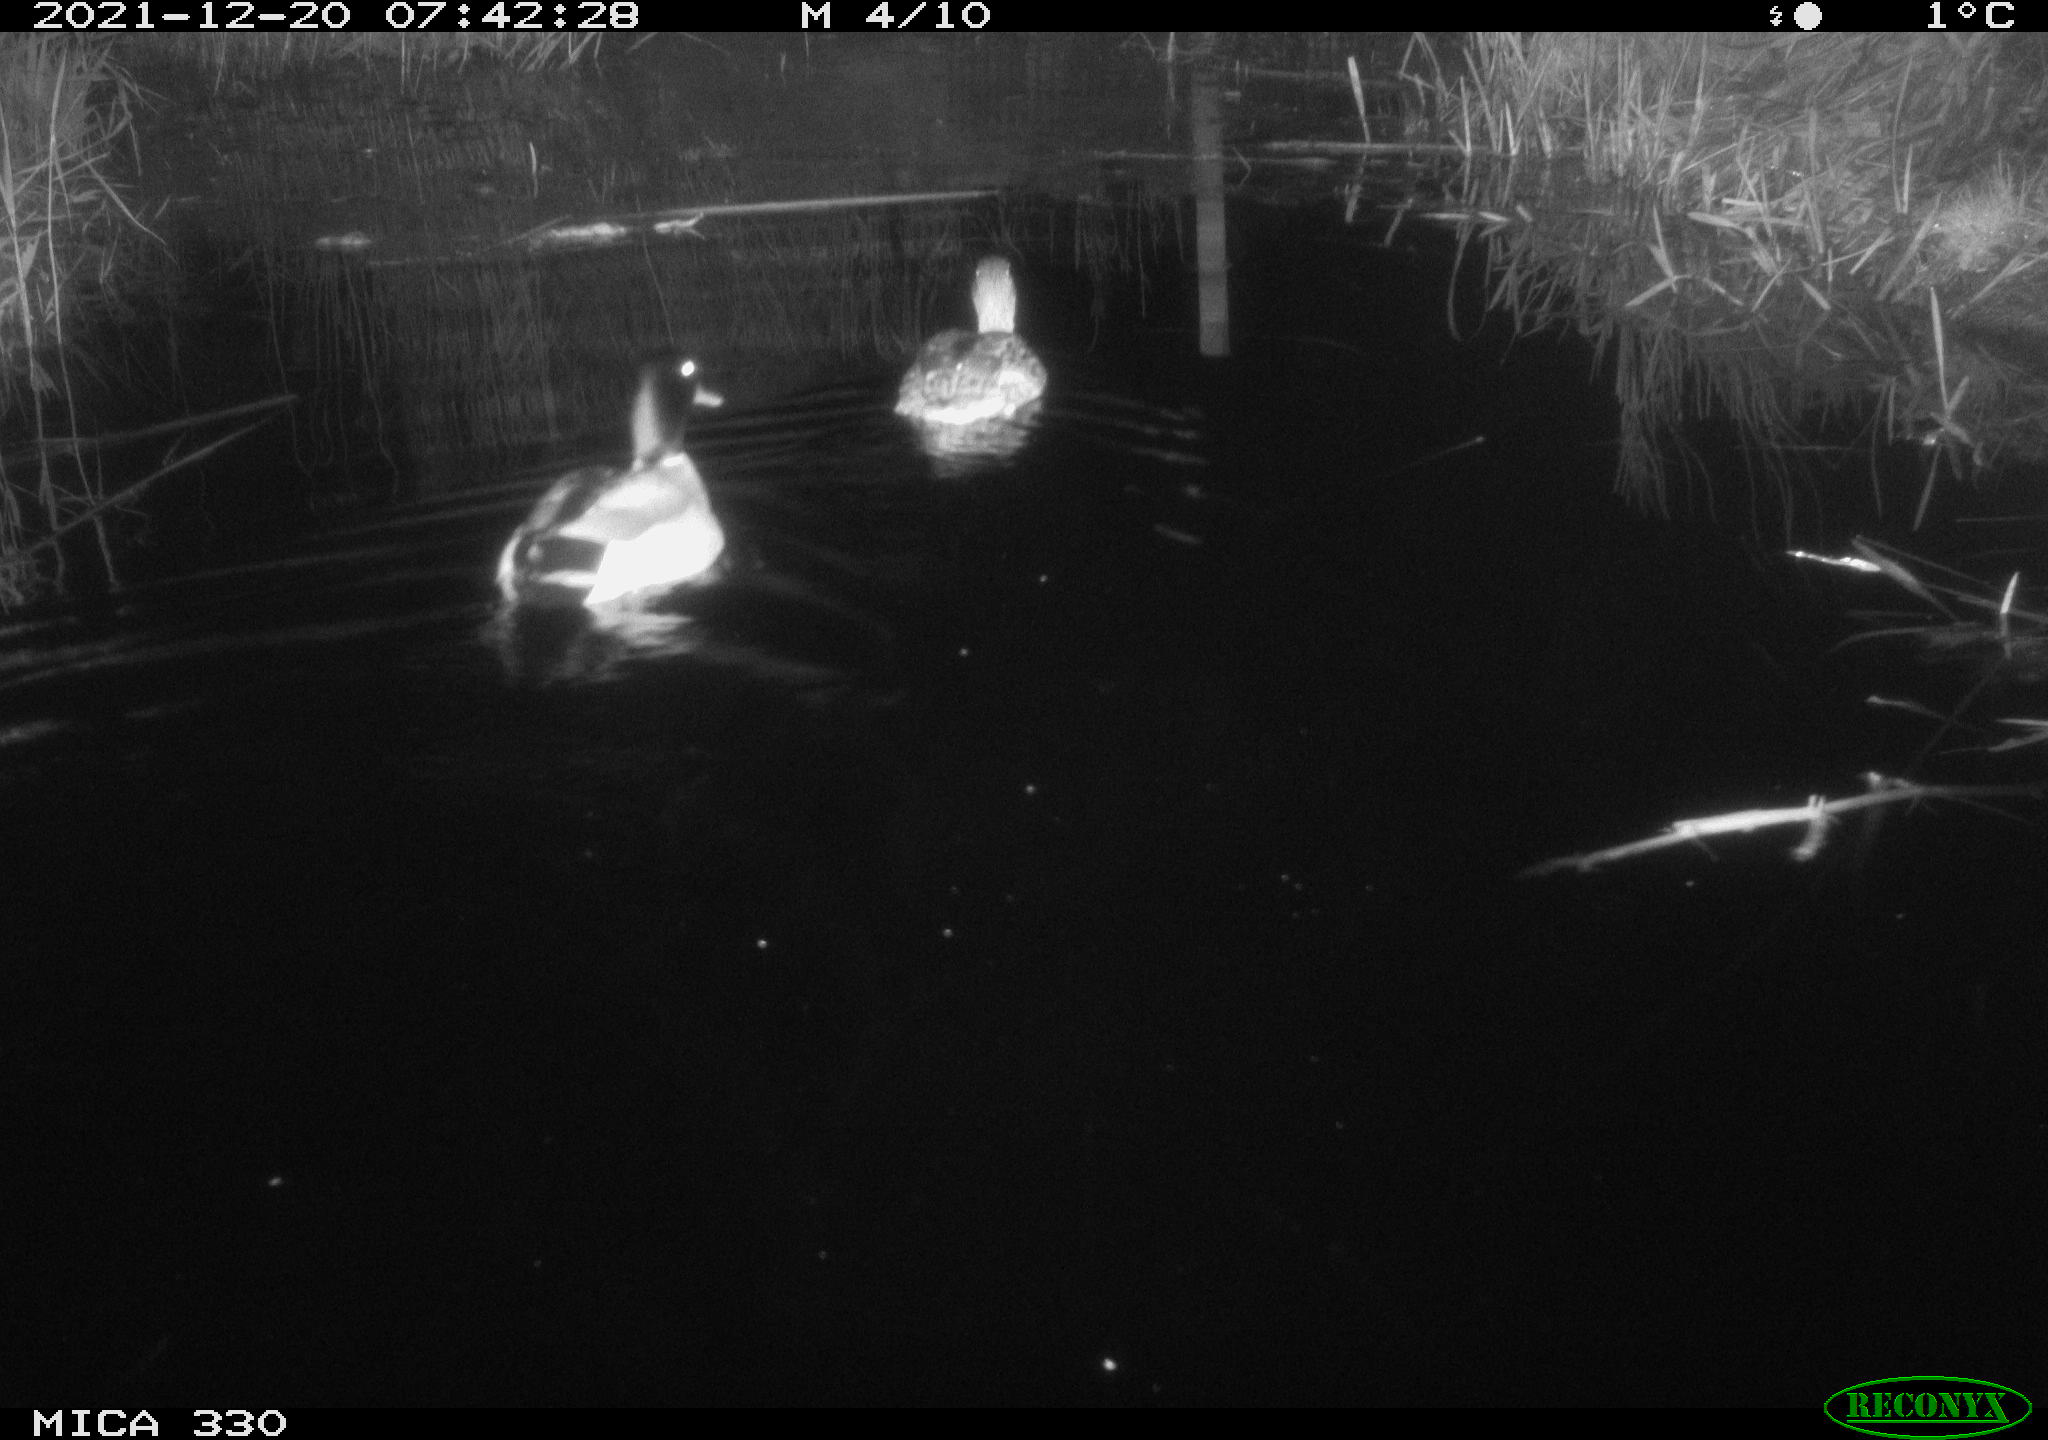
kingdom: Animalia
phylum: Chordata
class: Aves
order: Anseriformes
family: Anatidae
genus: Anas
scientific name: Anas platyrhynchos
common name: Mallard
